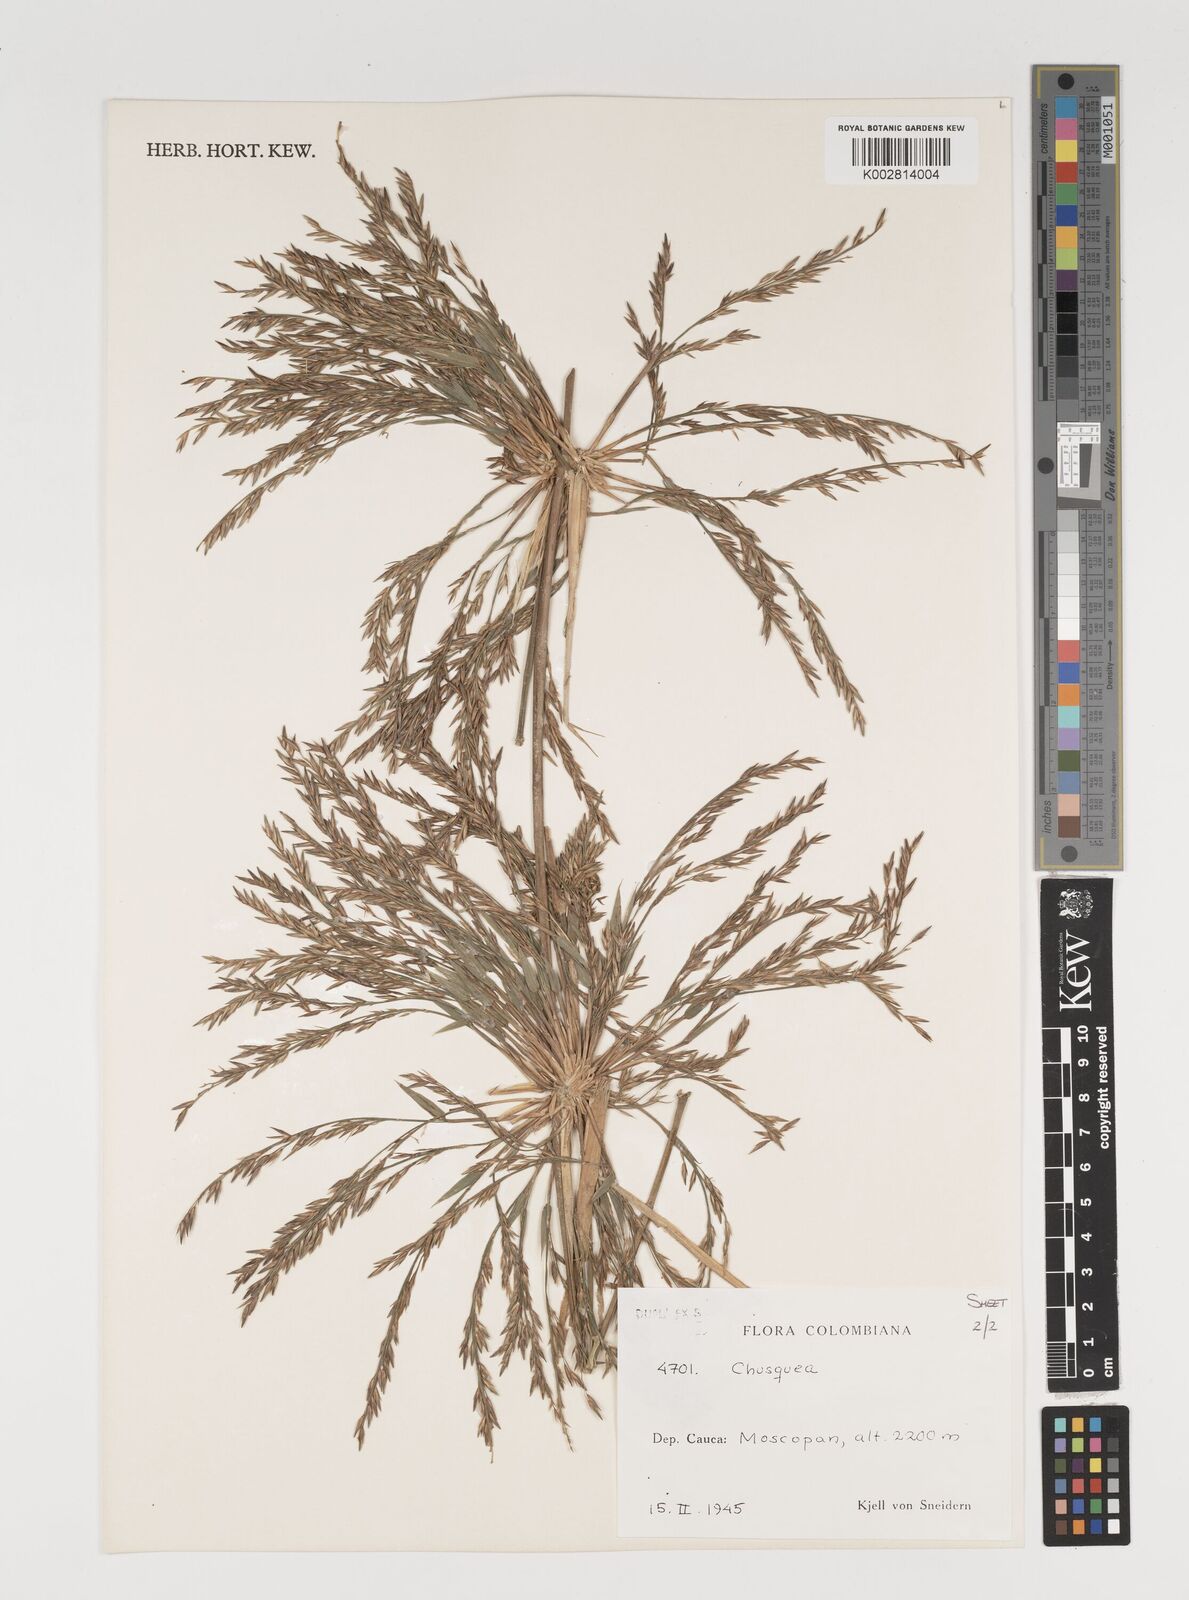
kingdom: Plantae
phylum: Tracheophyta
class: Liliopsida
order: Poales
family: Poaceae
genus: Chusquea
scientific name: Chusquea
